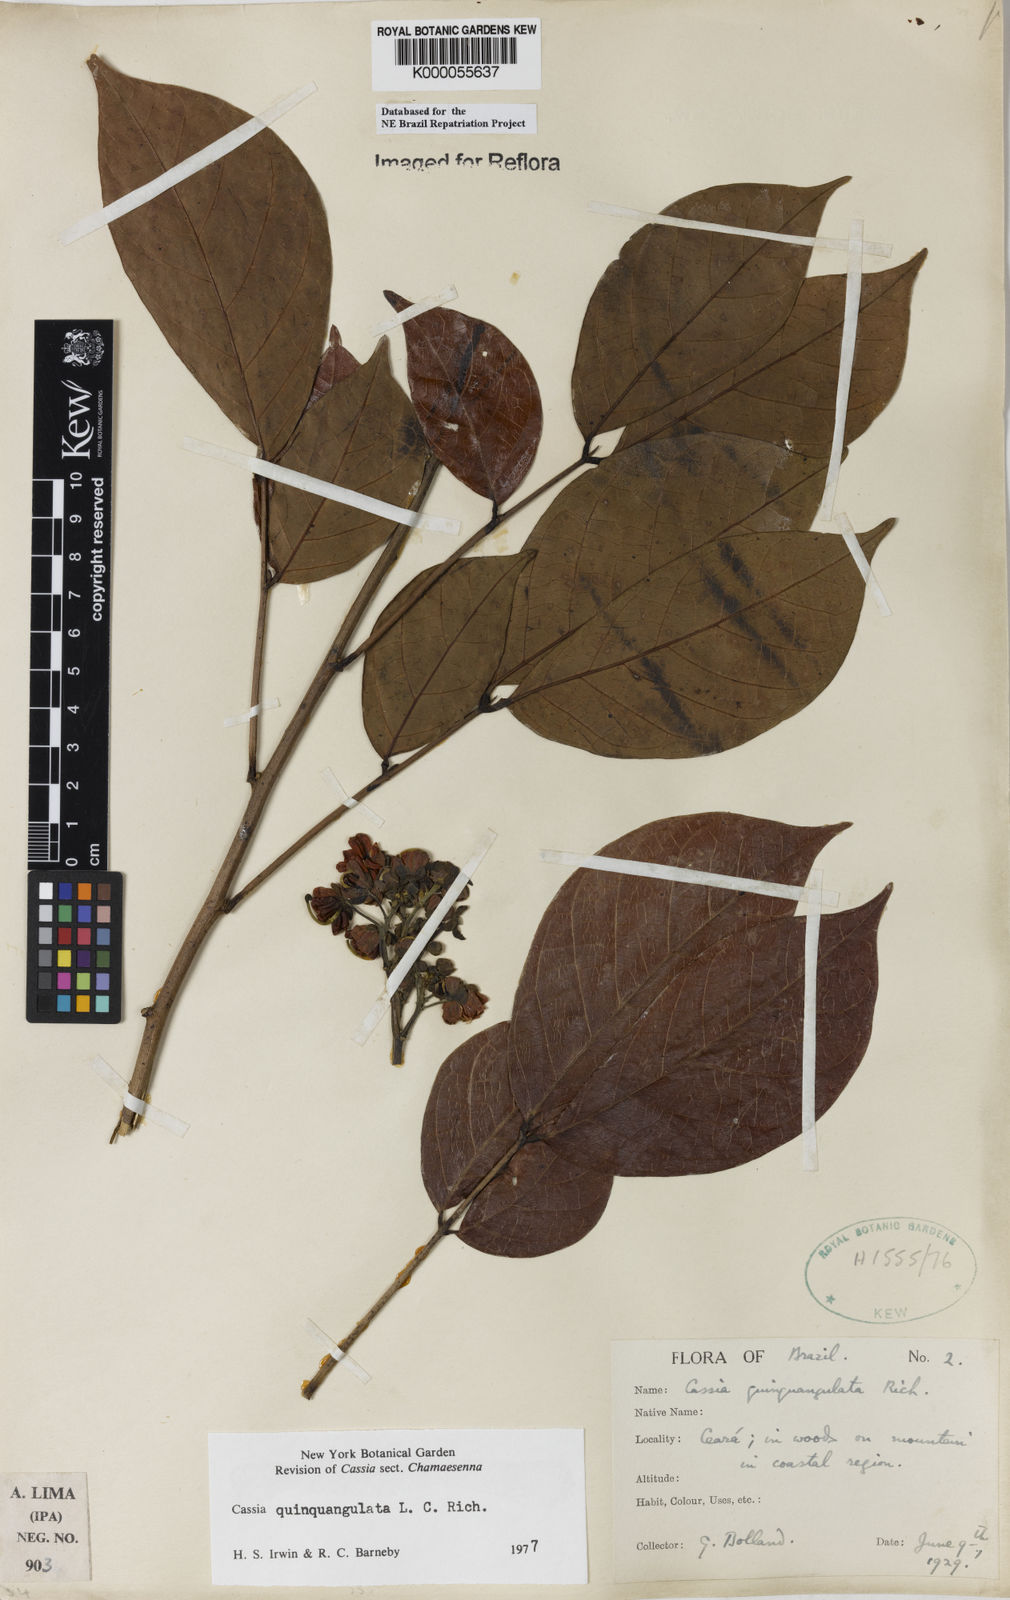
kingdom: Plantae
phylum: Tracheophyta
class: Magnoliopsida
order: Fabales
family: Fabaceae
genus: Senna
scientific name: Senna quinquangulata
